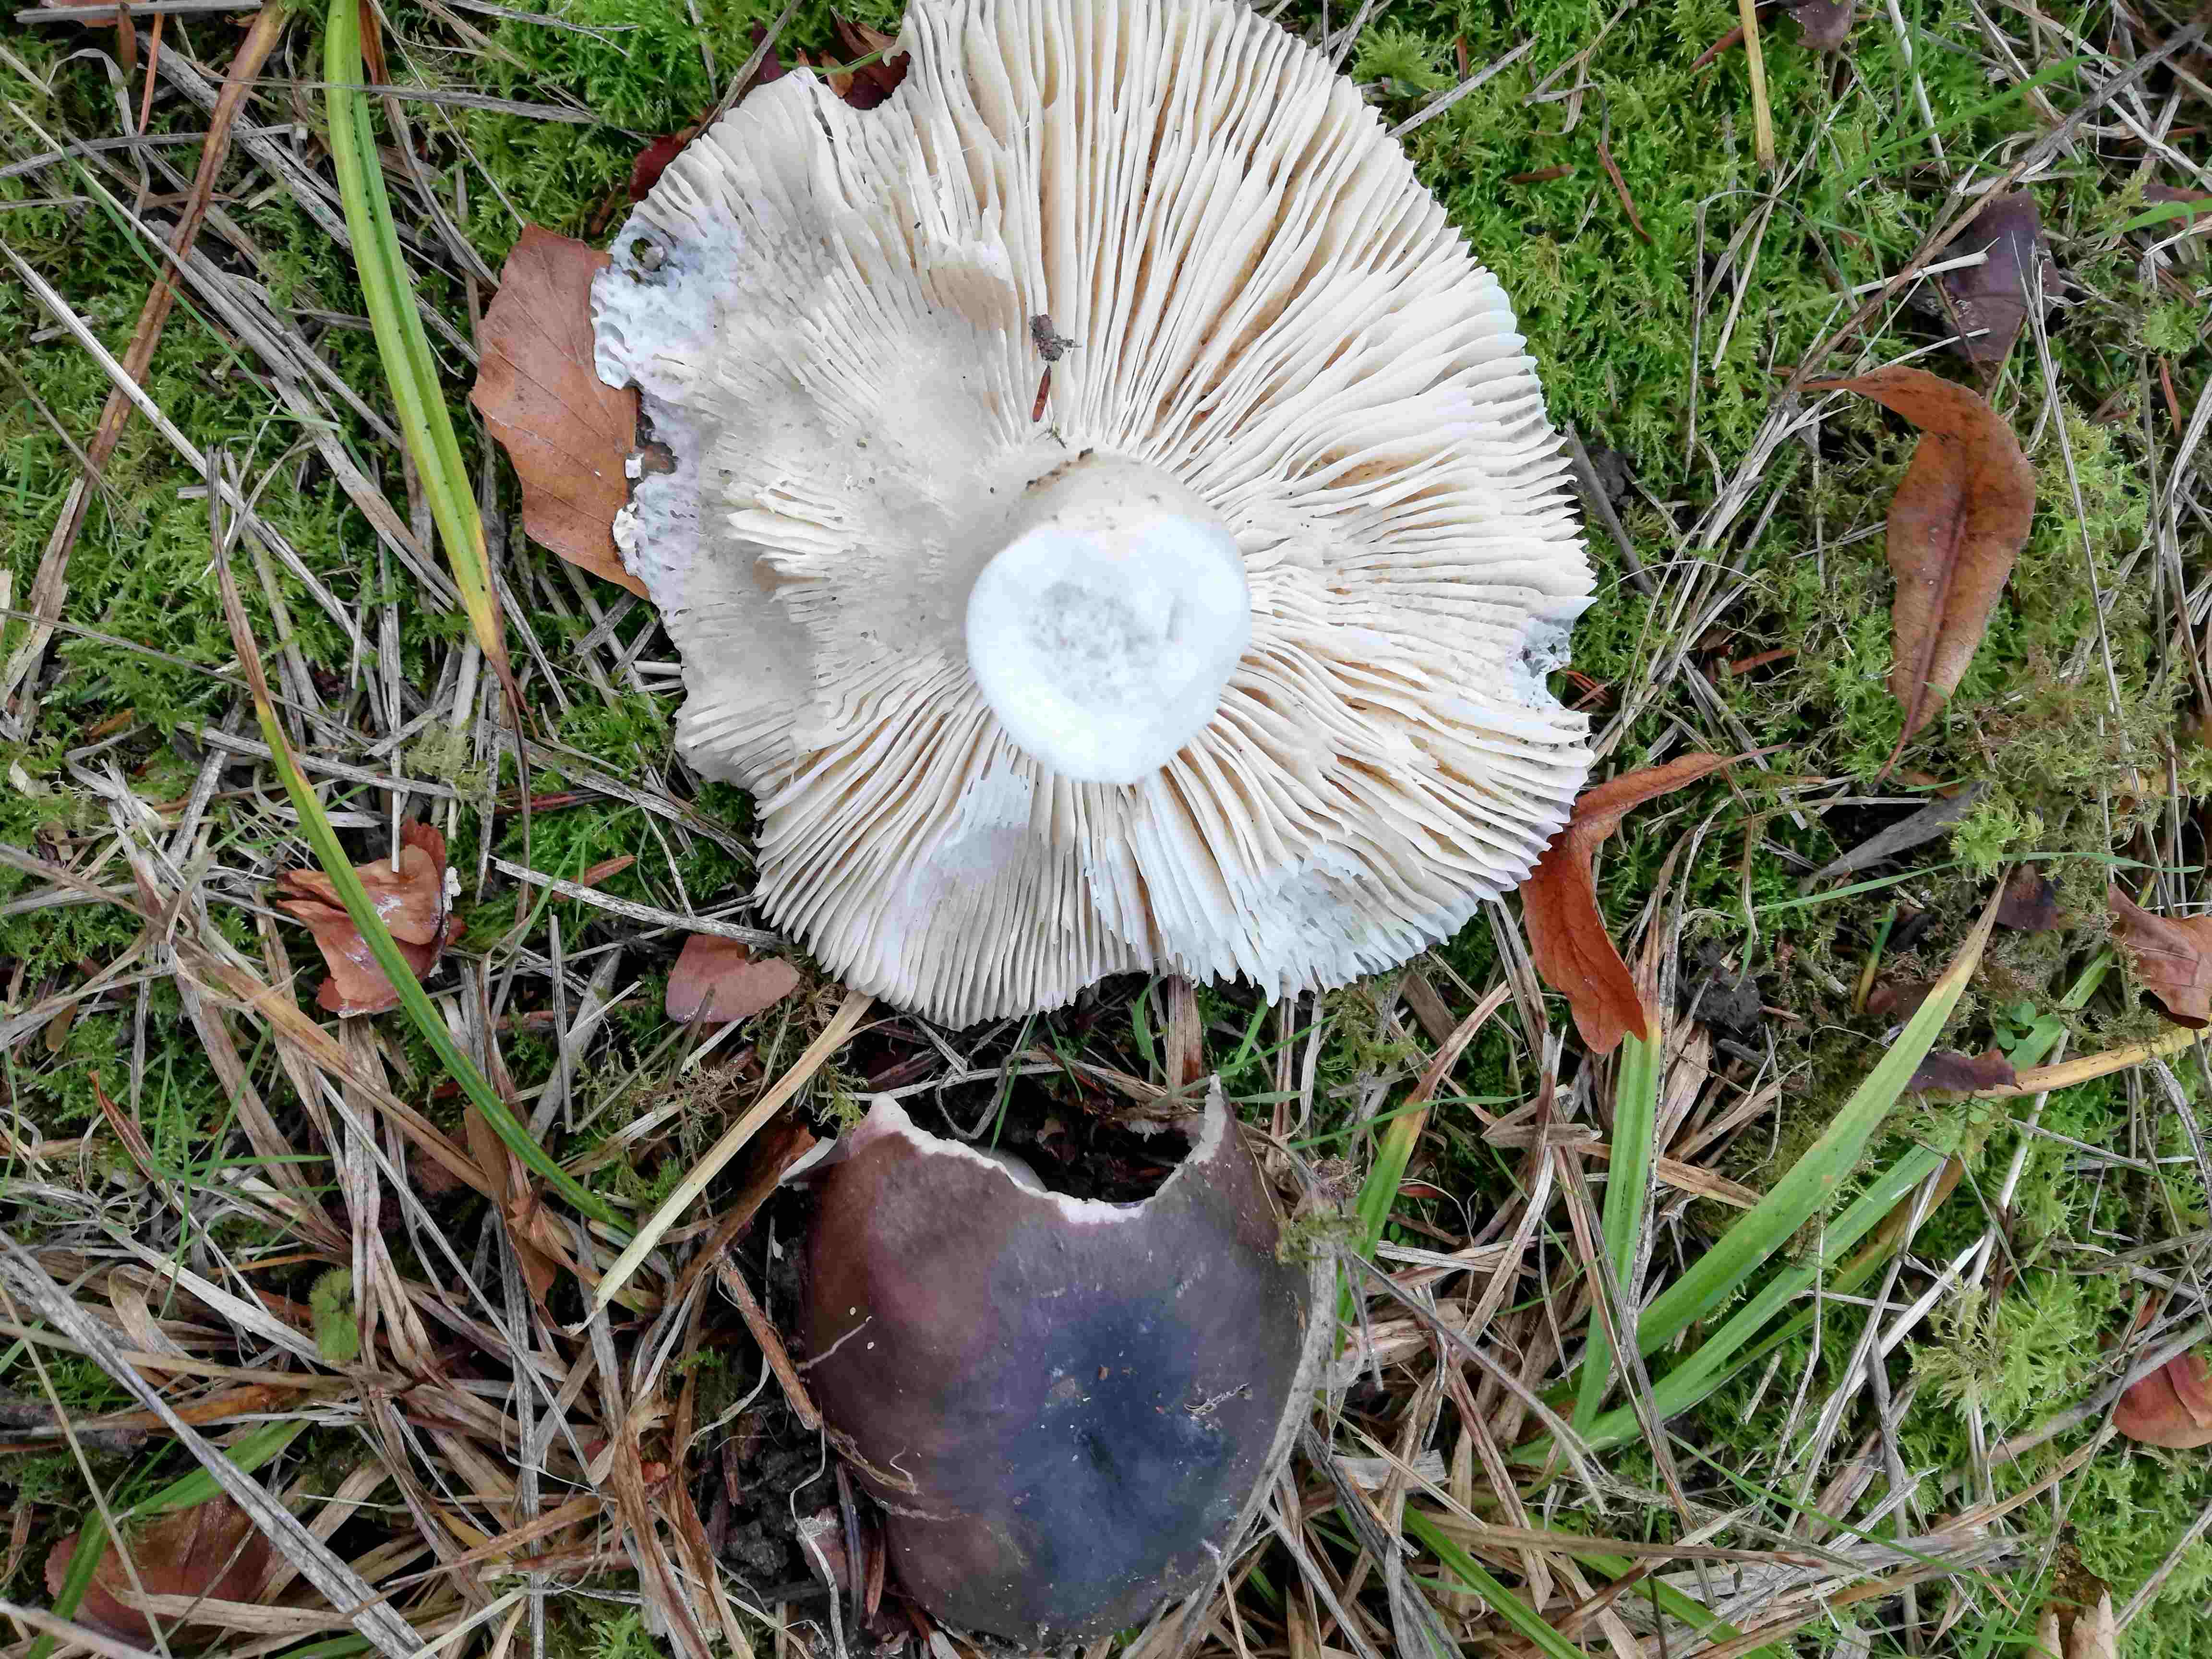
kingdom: Fungi
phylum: Basidiomycota
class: Agaricomycetes
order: Russulales
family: Russulaceae
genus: Russula
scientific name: Russula
